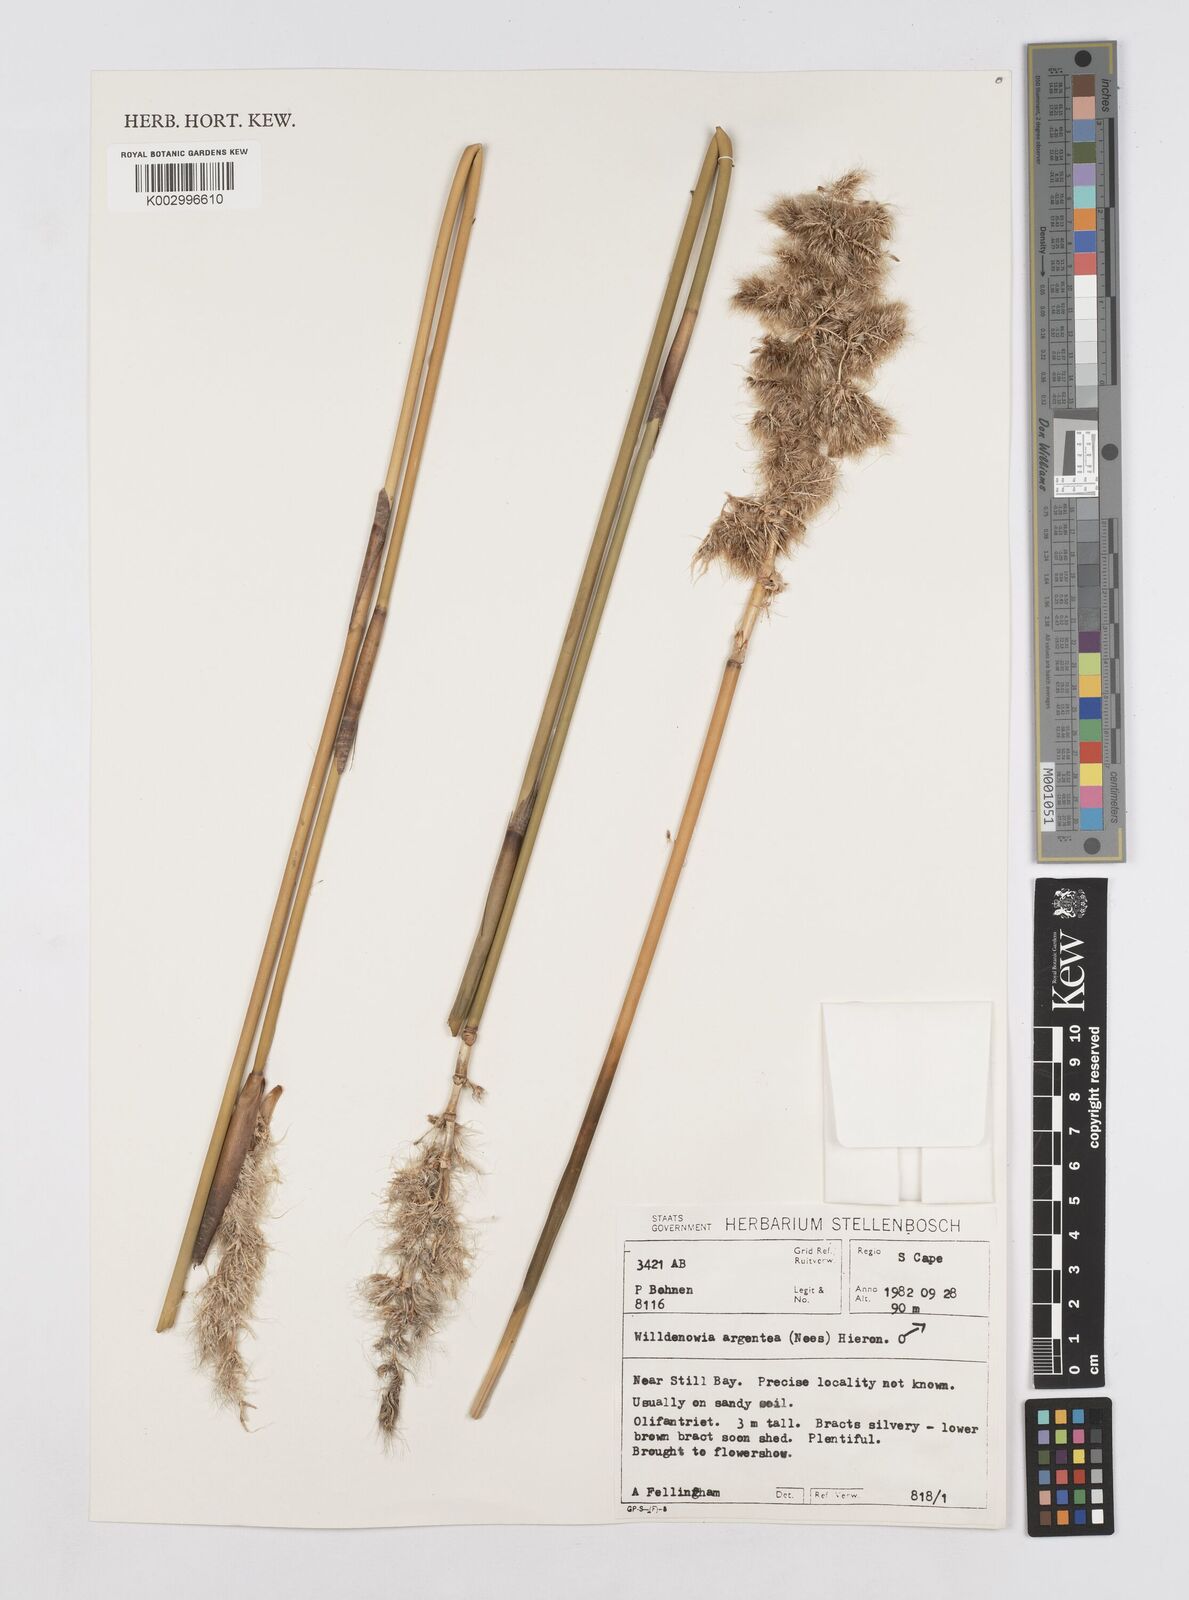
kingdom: Plantae
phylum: Tracheophyta
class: Liliopsida
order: Poales
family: Restionaceae
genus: Ceratocaryum
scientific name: Ceratocaryum argenteum
